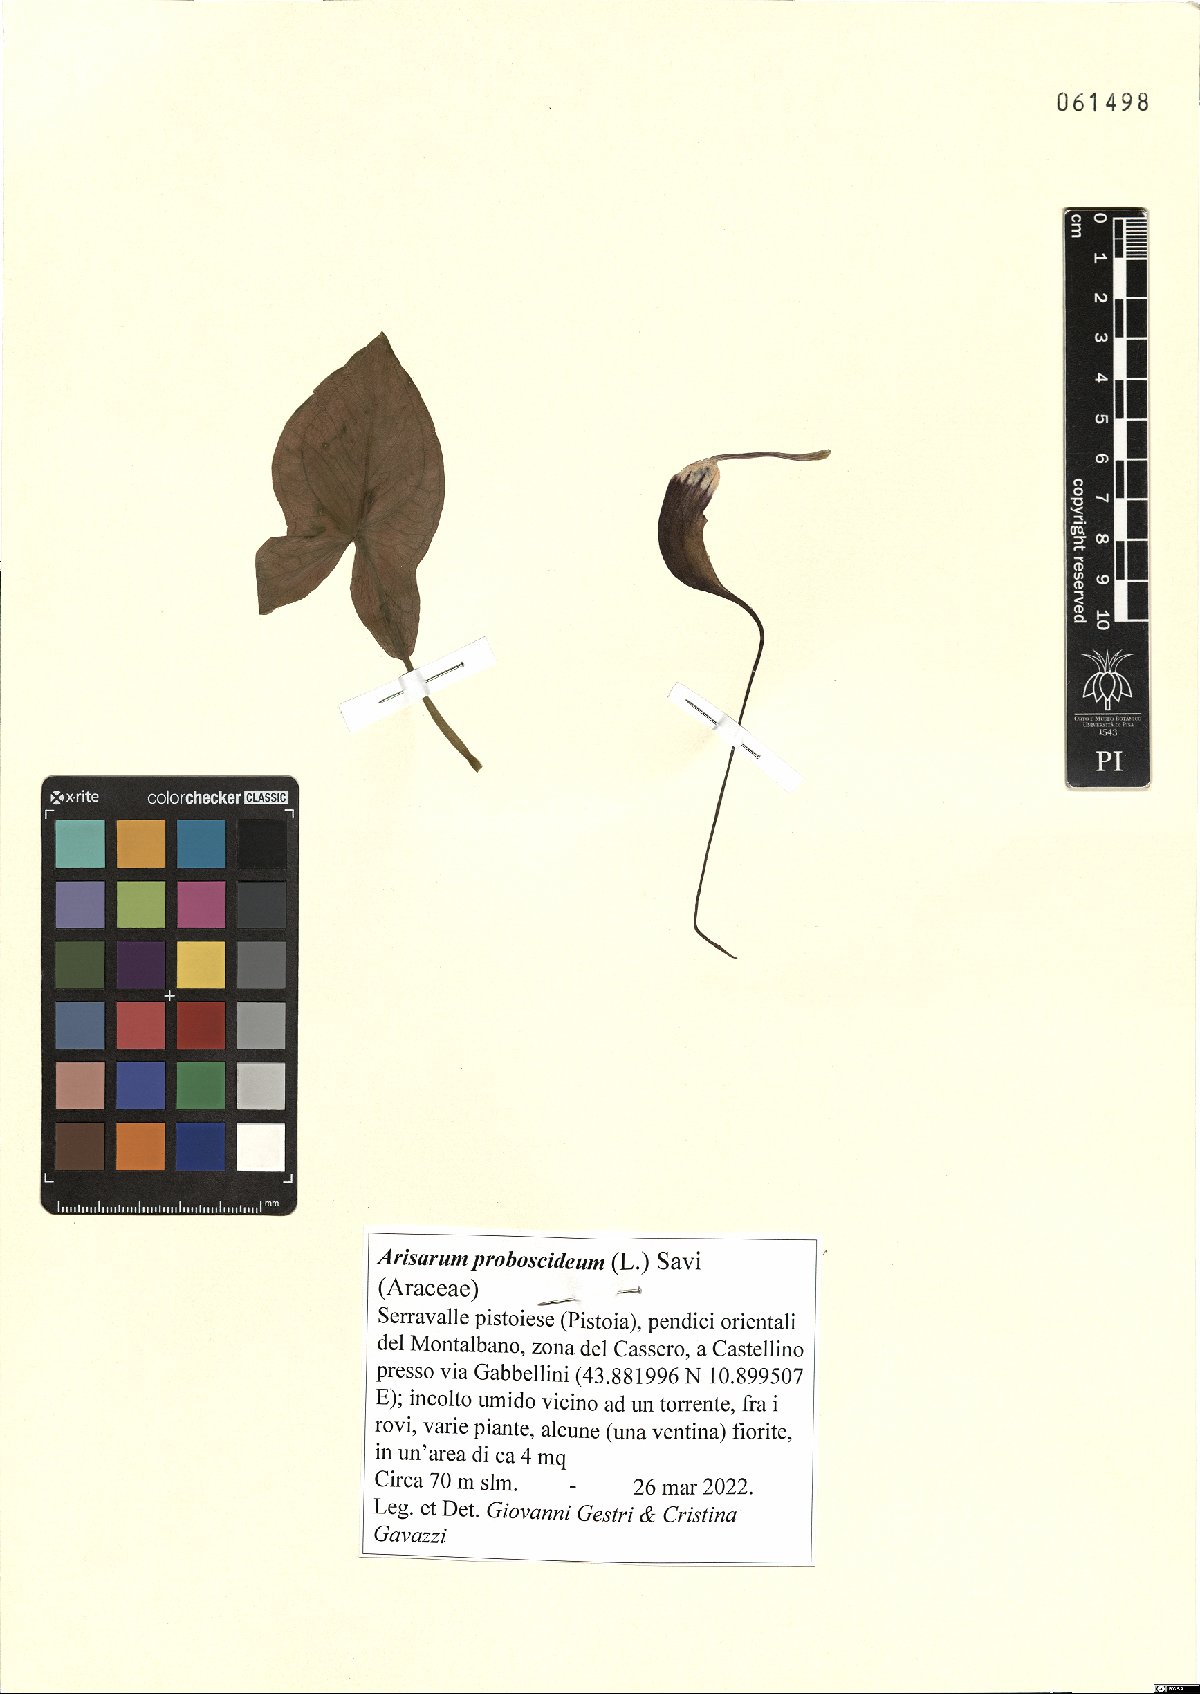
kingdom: Plantae
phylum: Tracheophyta
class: Liliopsida
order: Alismatales
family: Araceae
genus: Arisarum
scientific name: Arisarum proboscideum
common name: Mousetailplant
